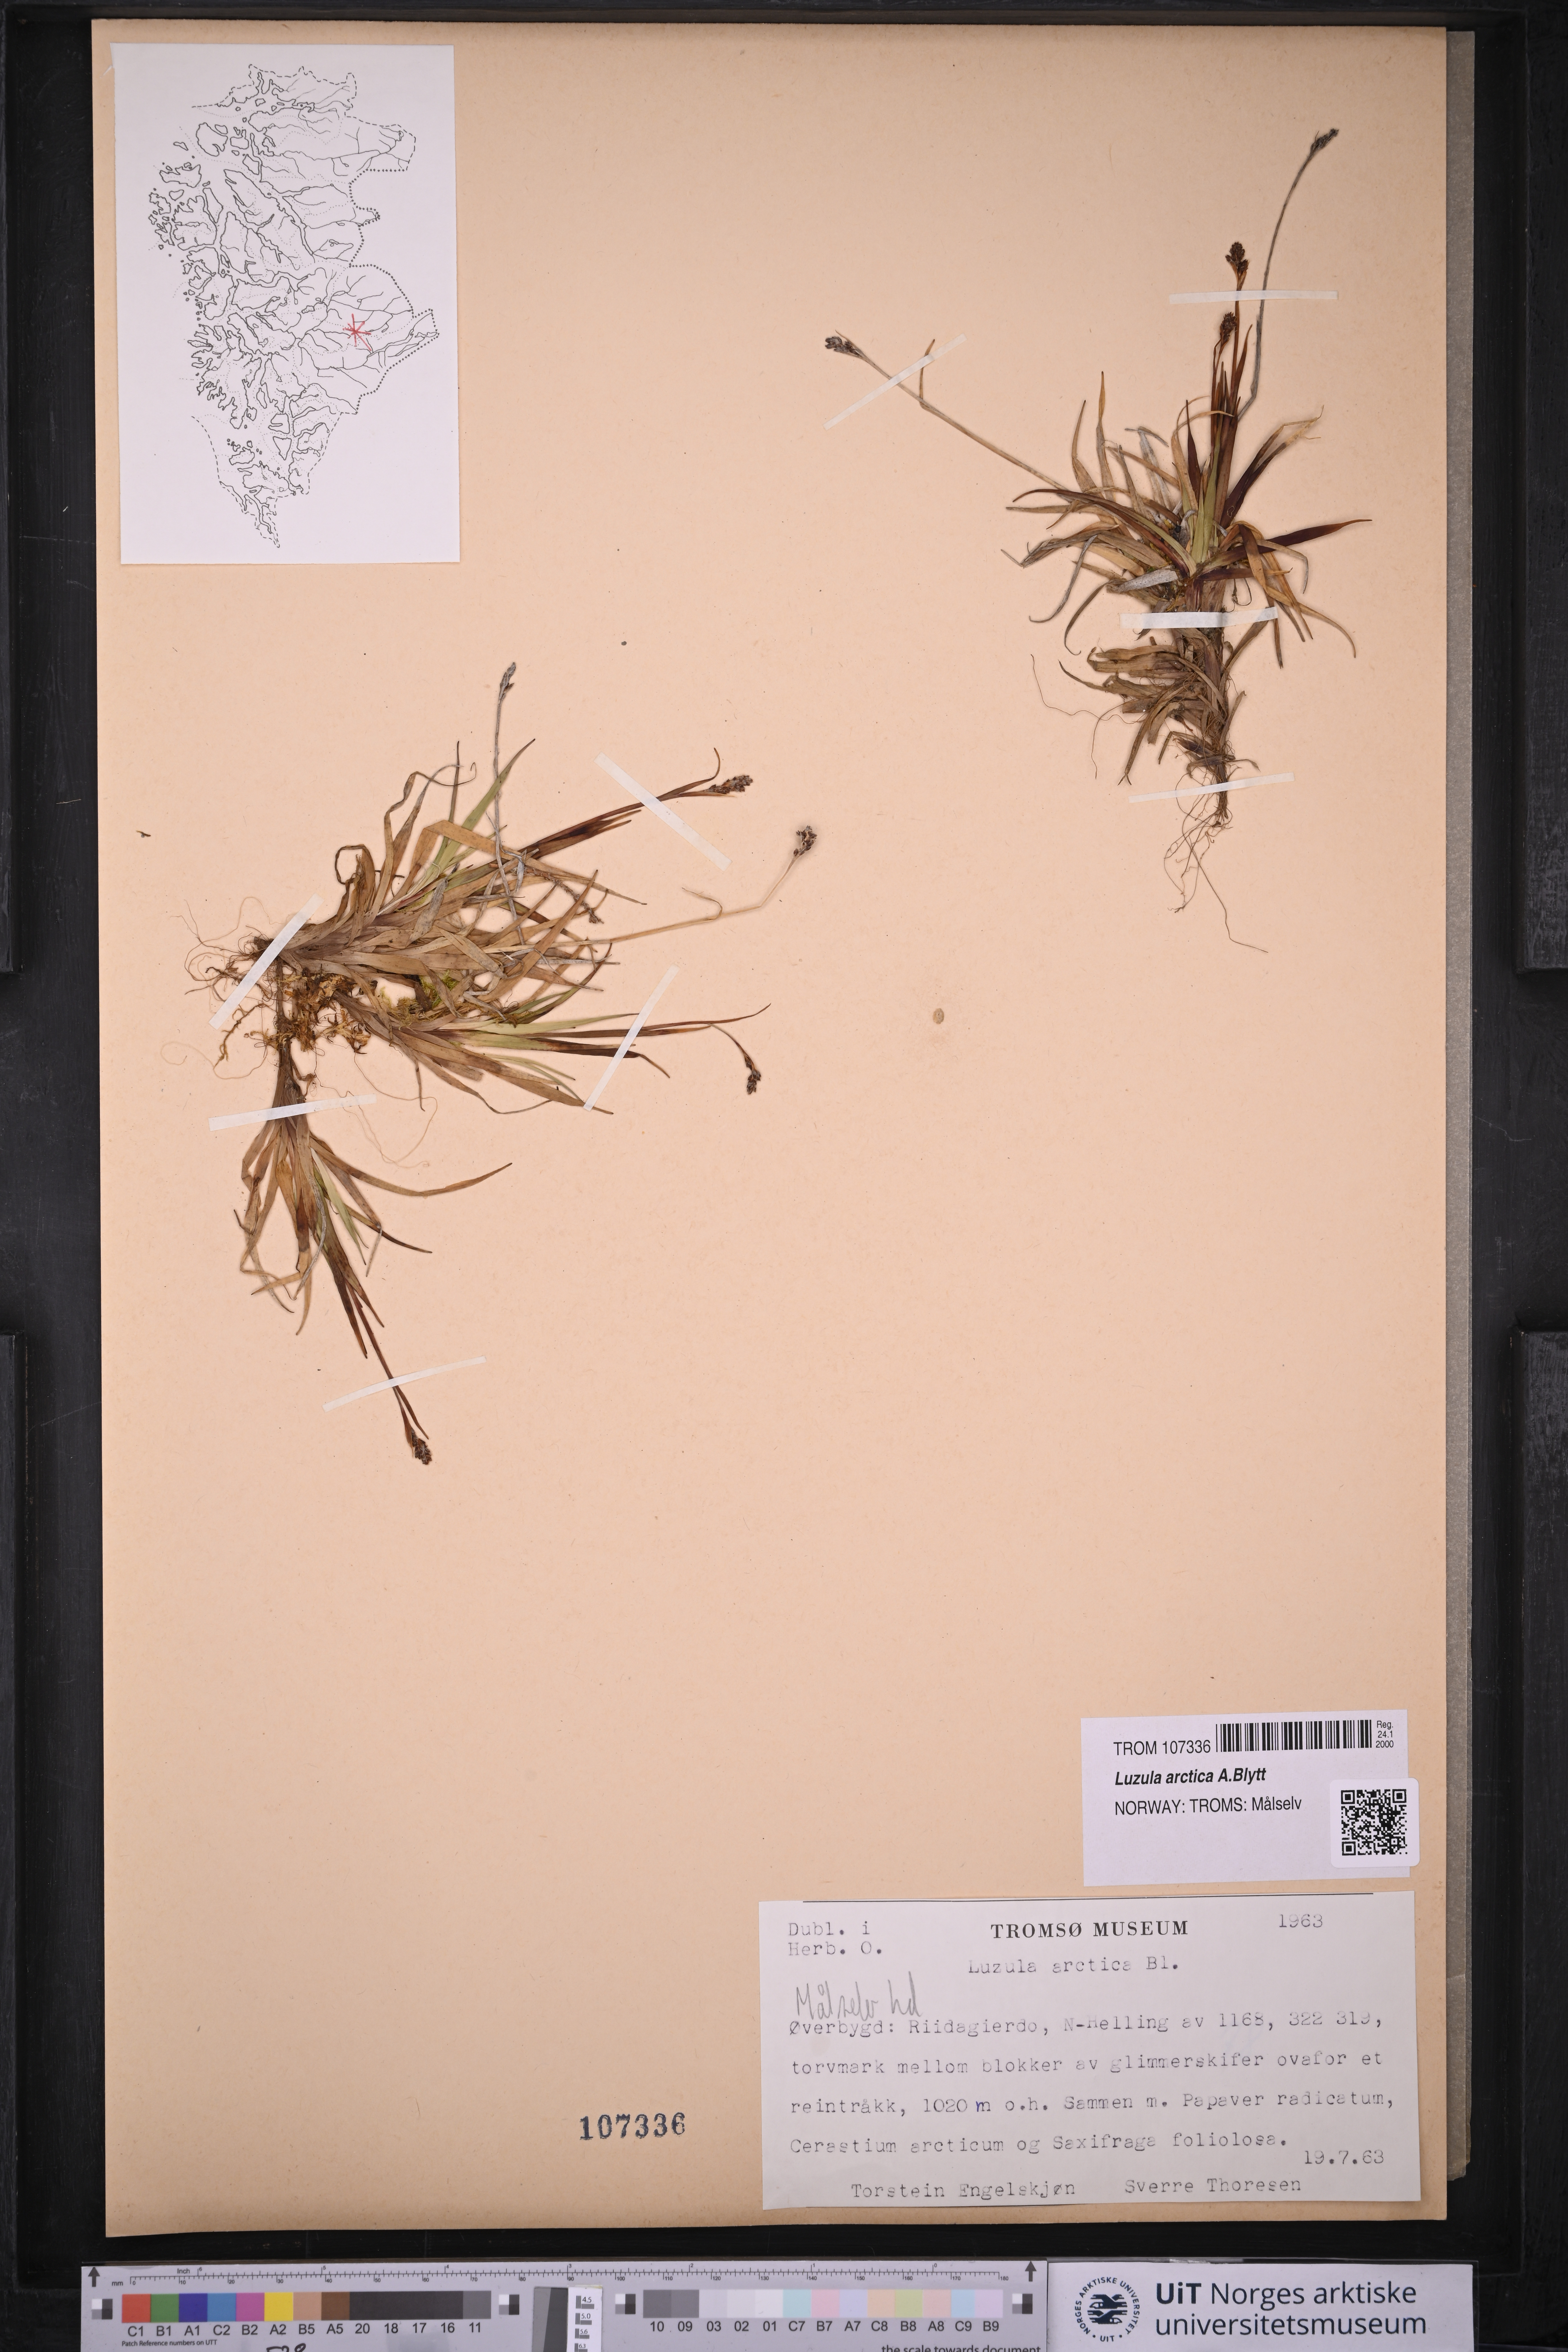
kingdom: Plantae
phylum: Tracheophyta
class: Liliopsida
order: Poales
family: Juncaceae
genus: Luzula
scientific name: Luzula nivalis
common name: Arctic woodrush
